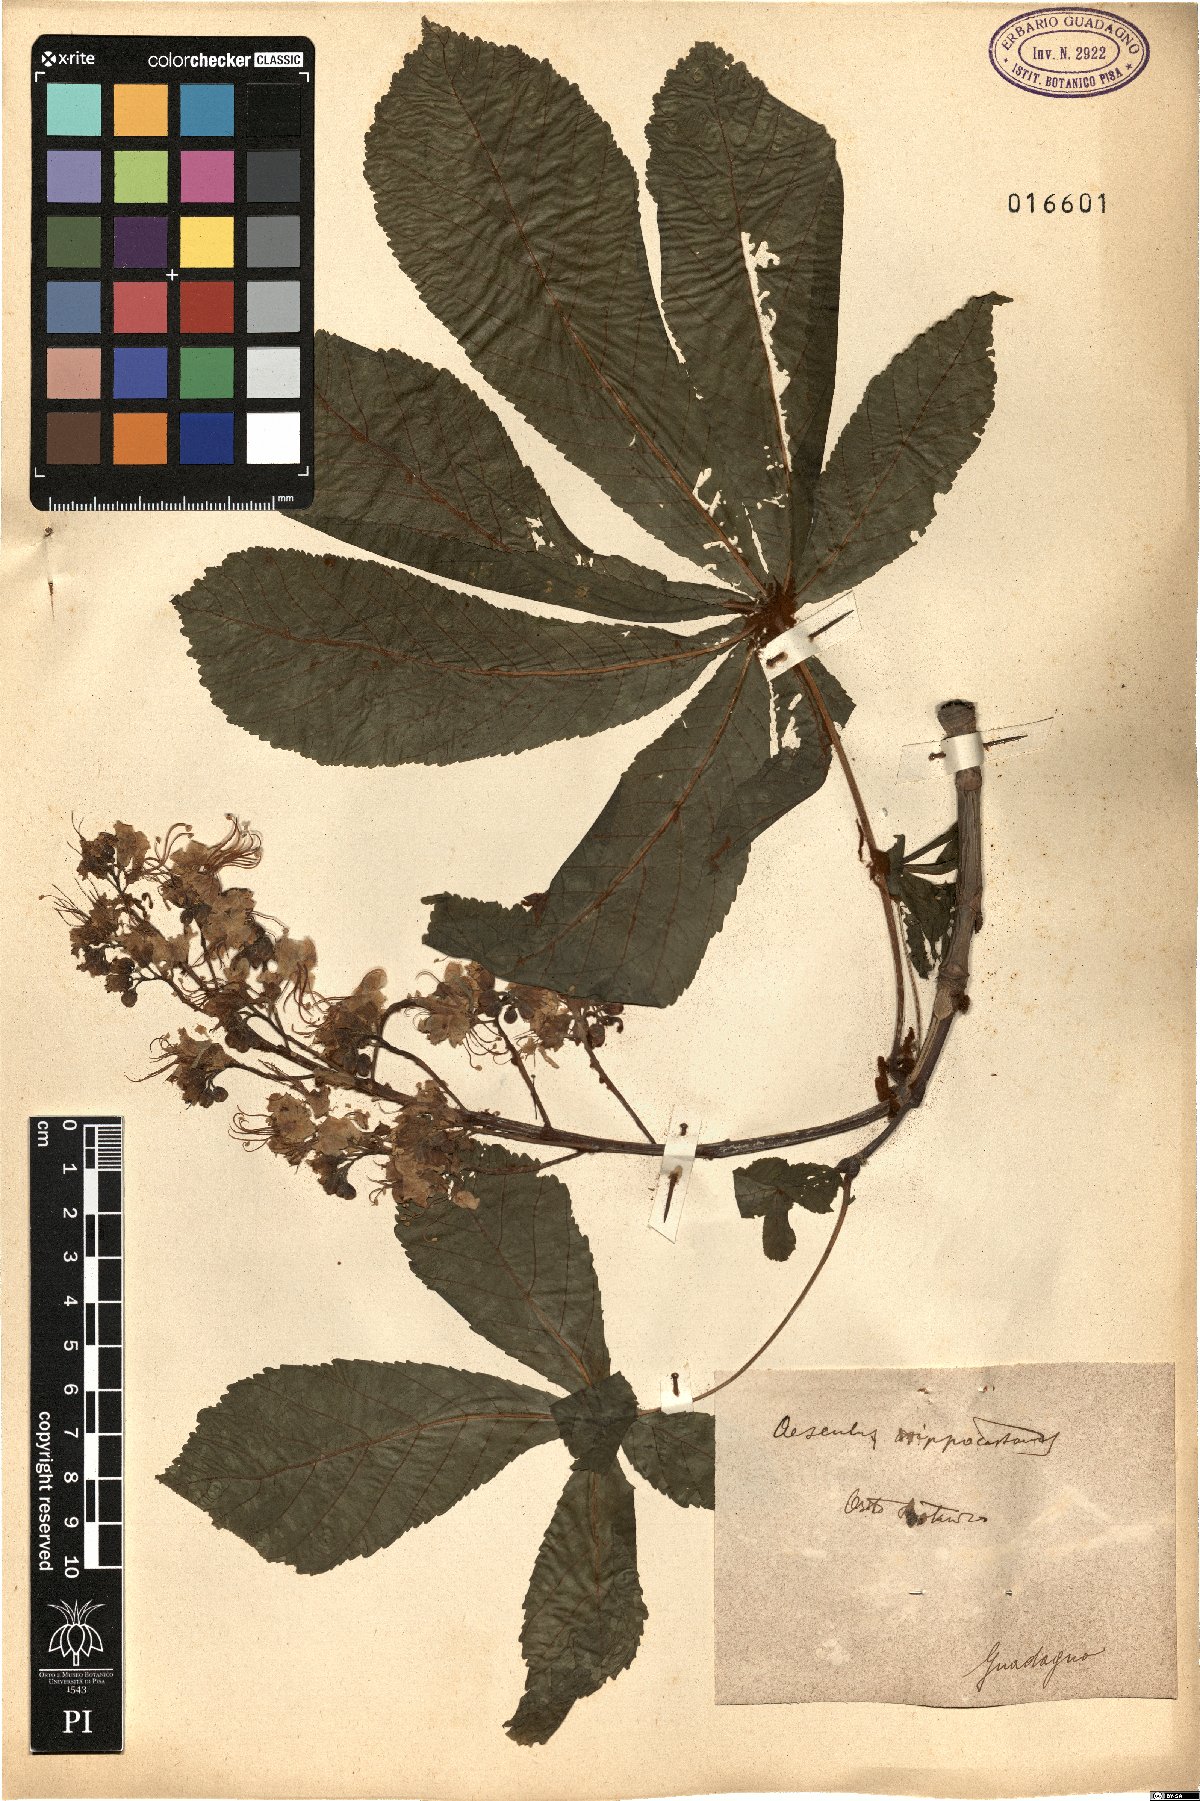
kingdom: Plantae
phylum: Tracheophyta
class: Magnoliopsida
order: Sapindales
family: Sapindaceae
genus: Aesculus
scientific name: Aesculus hippocastanum
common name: Horse-chestnut
